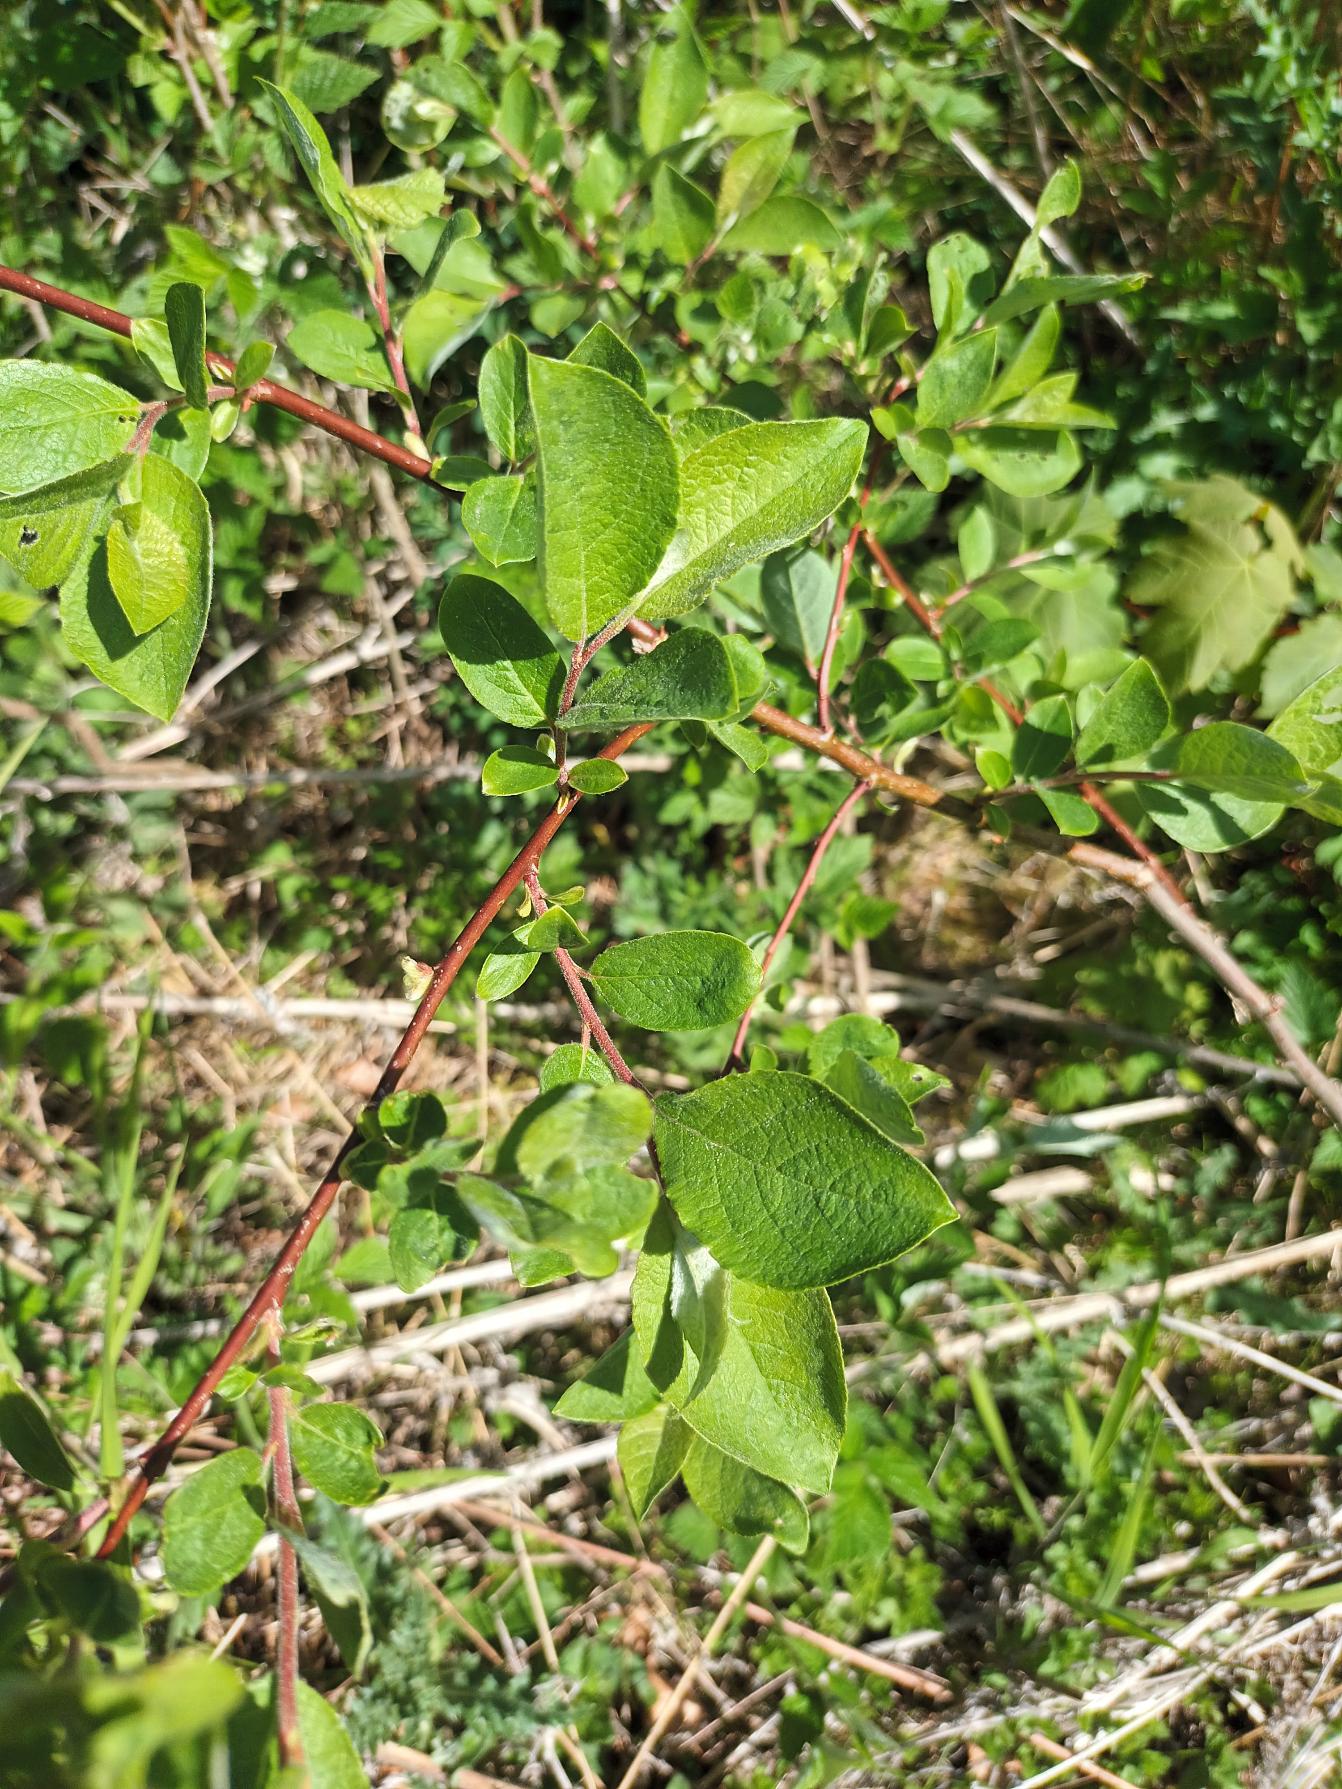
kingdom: Plantae
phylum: Tracheophyta
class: Magnoliopsida
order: Malpighiales
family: Salicaceae
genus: Salix
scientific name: Salix caprea
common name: Selje-pil
